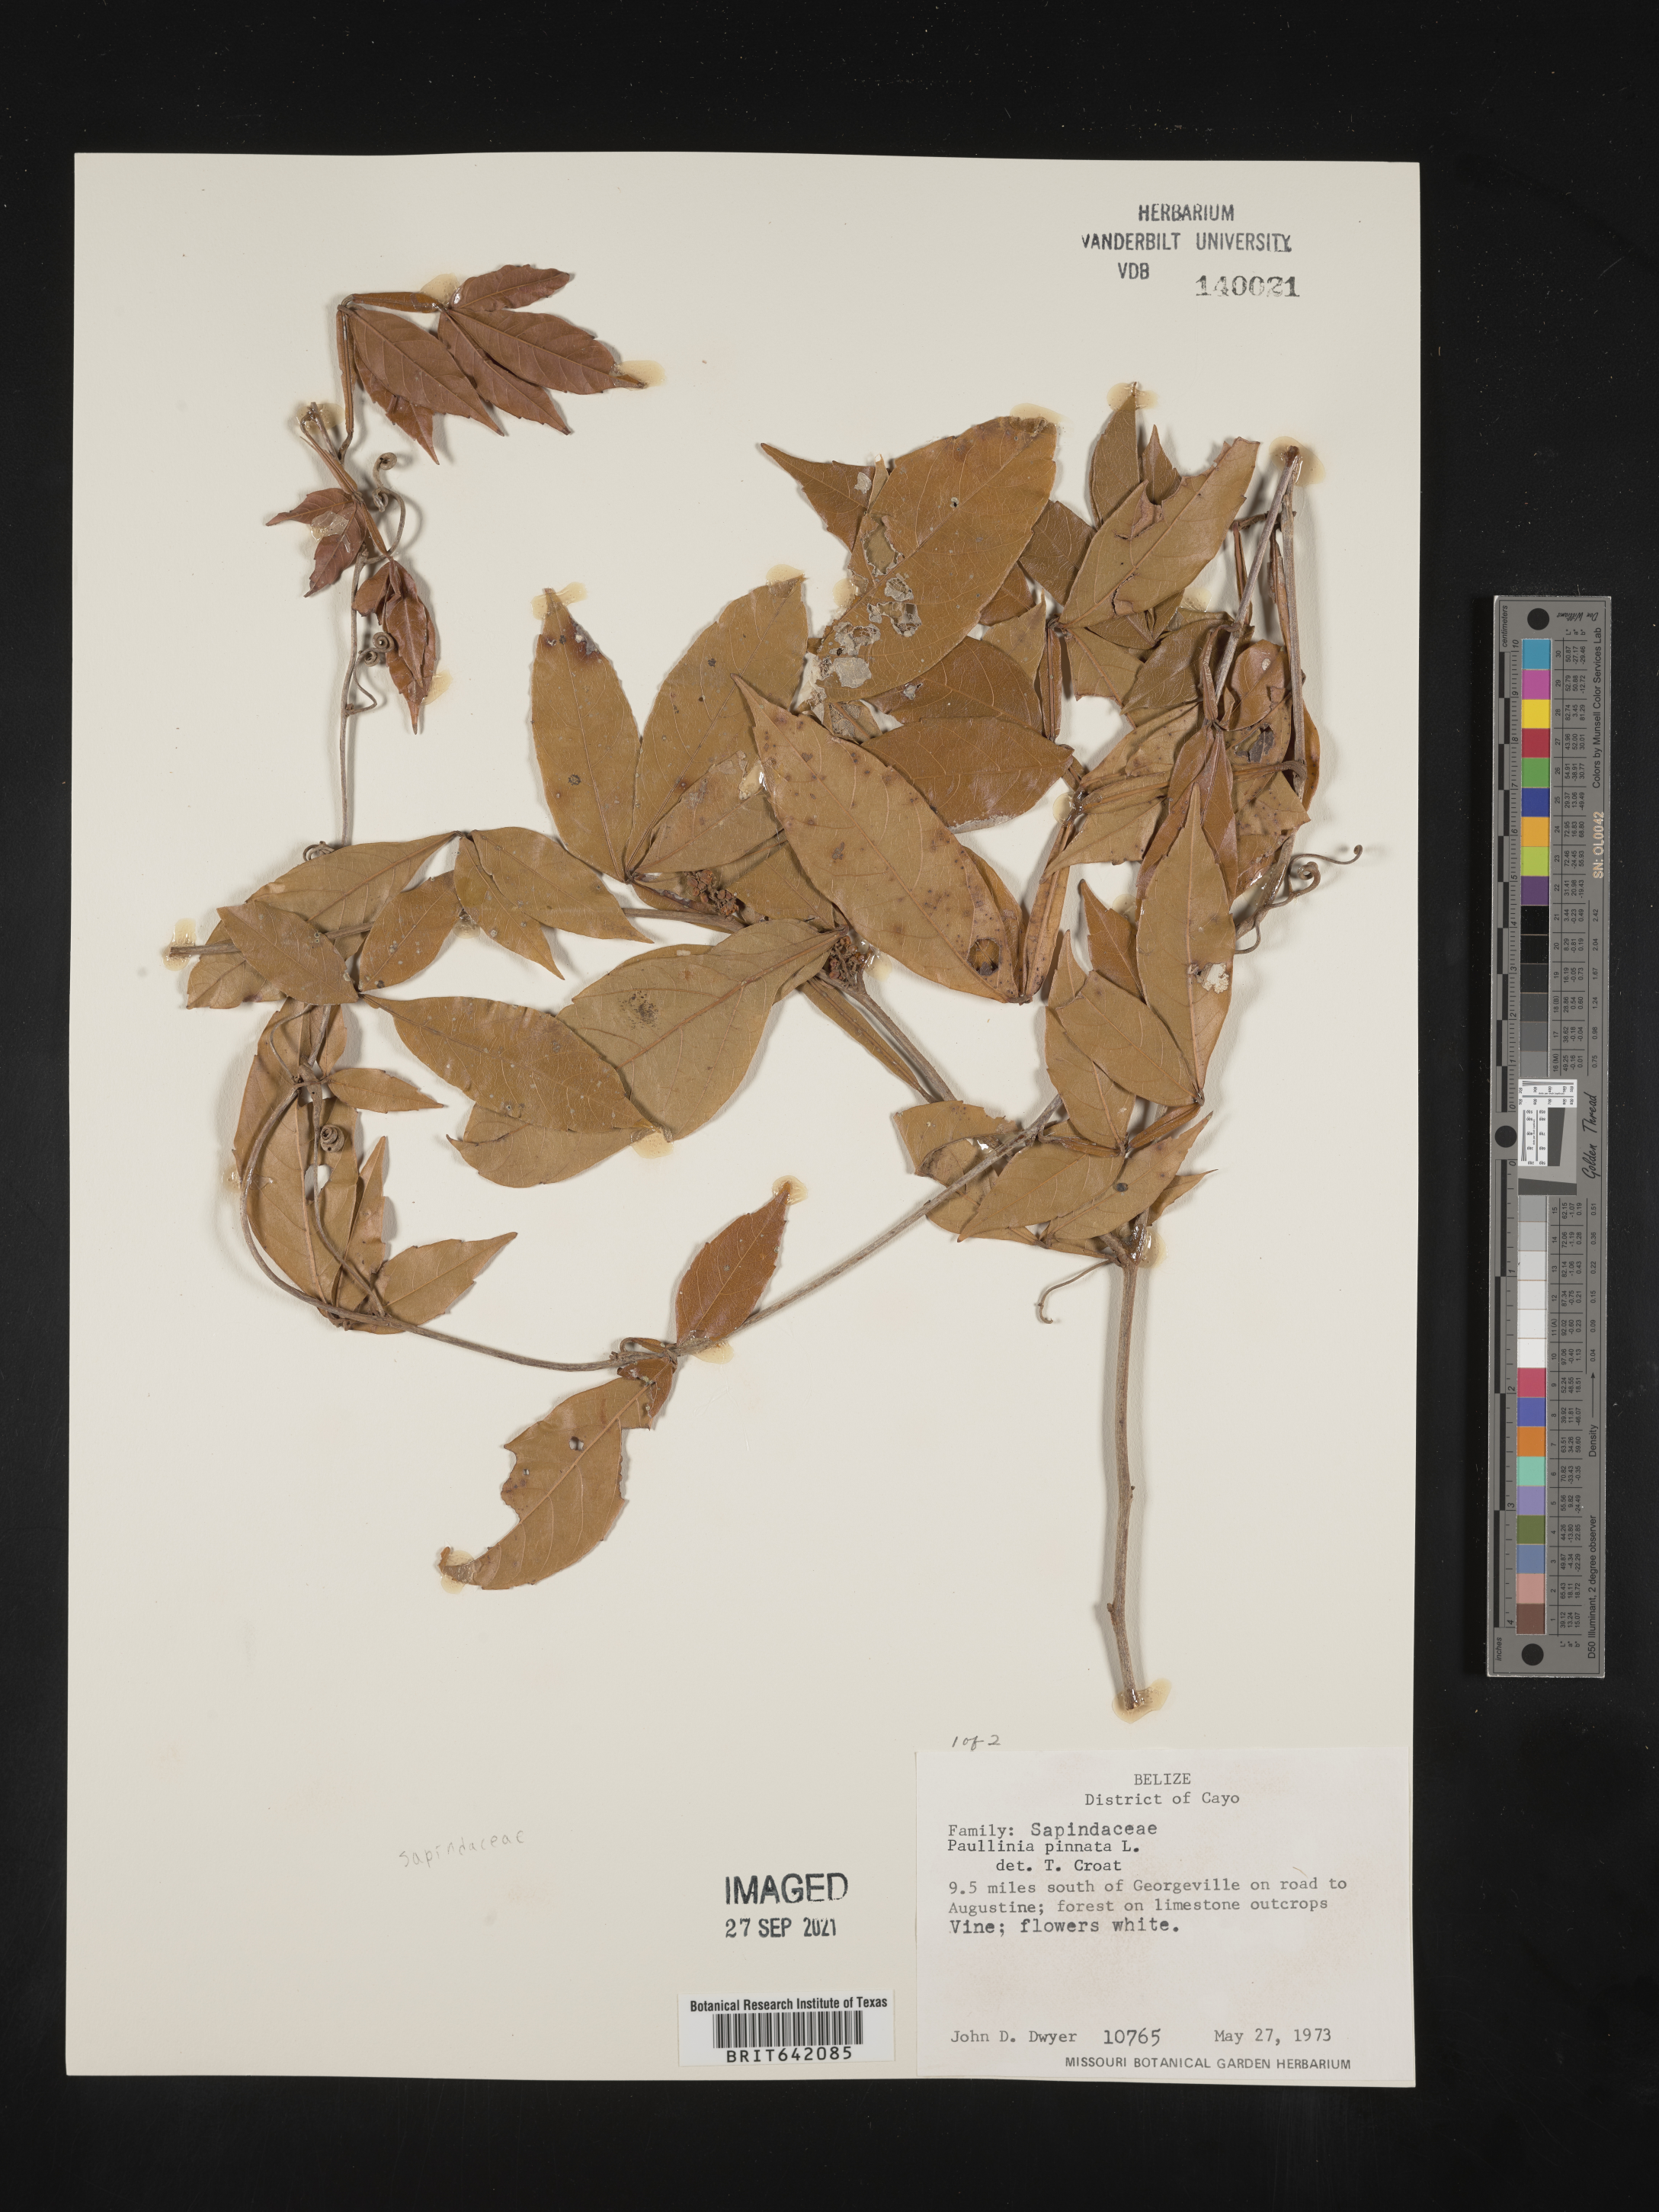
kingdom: Plantae
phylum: Tracheophyta
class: Magnoliopsida
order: Sapindales
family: Sapindaceae
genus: Paullinia
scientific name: Paullinia
